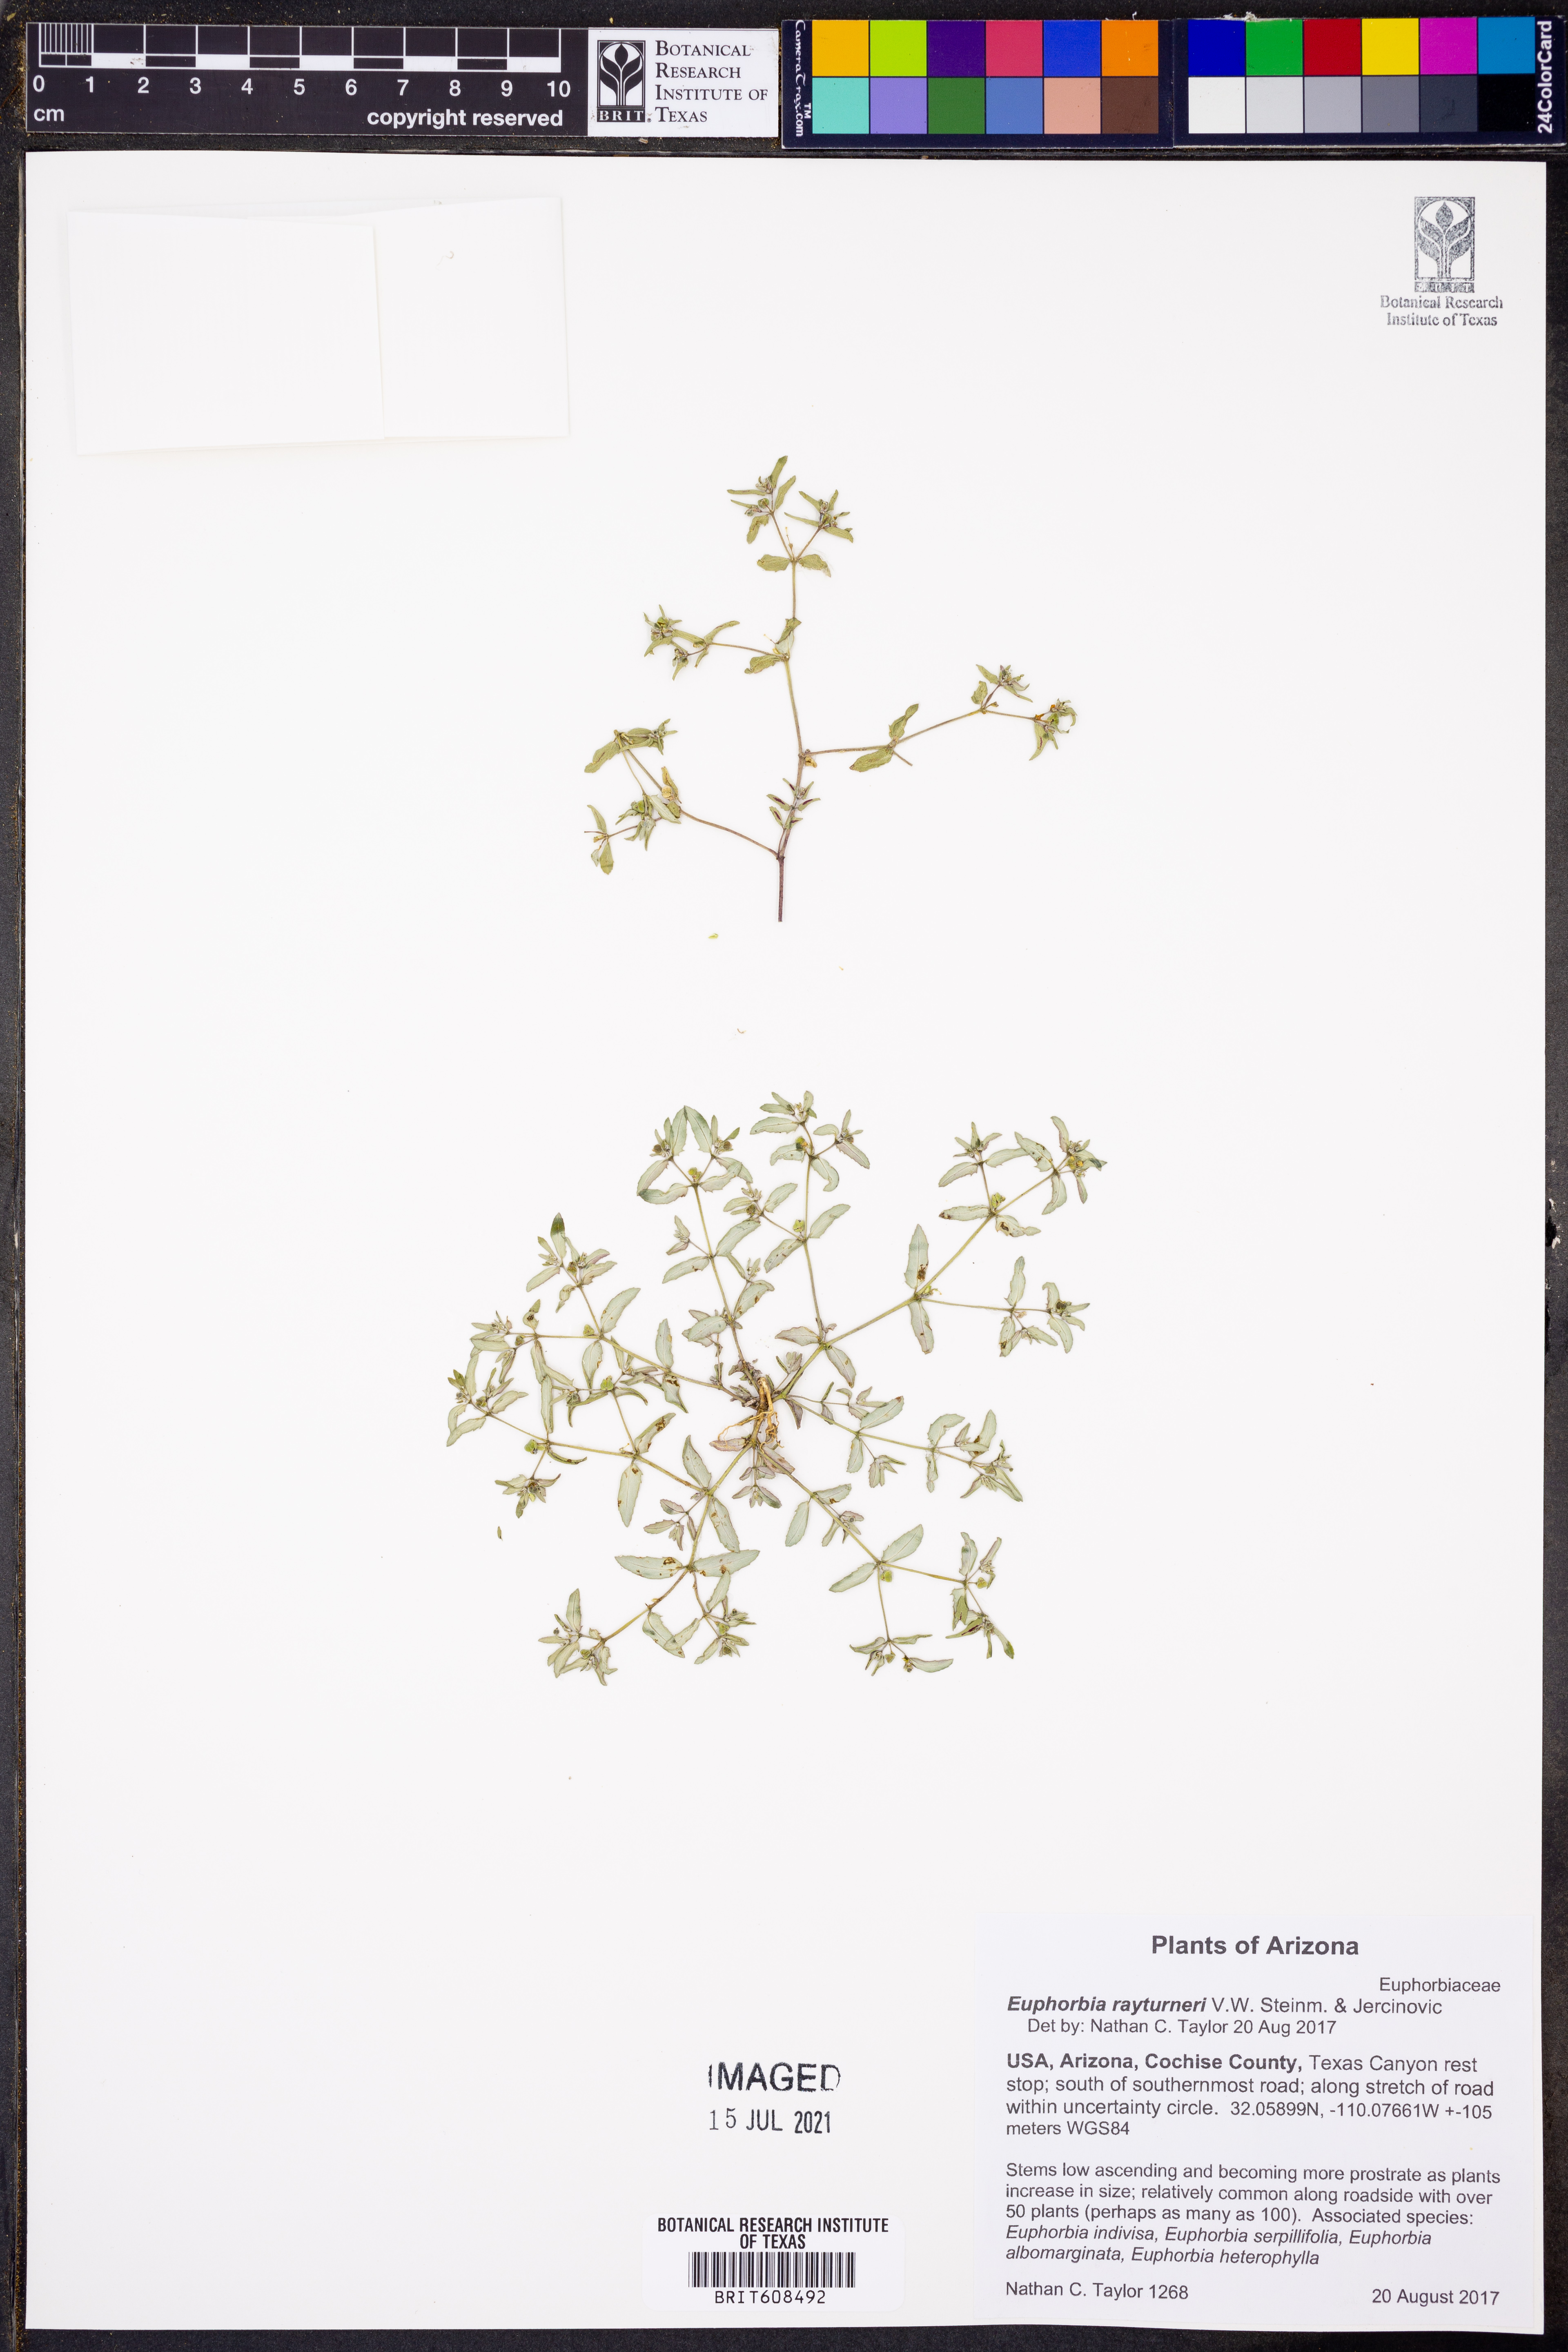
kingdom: Plantae
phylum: Tracheophyta
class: Magnoliopsida
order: Malpighiales
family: Euphorbiaceae
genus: Euphorbia
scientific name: Euphorbia rayturneri
